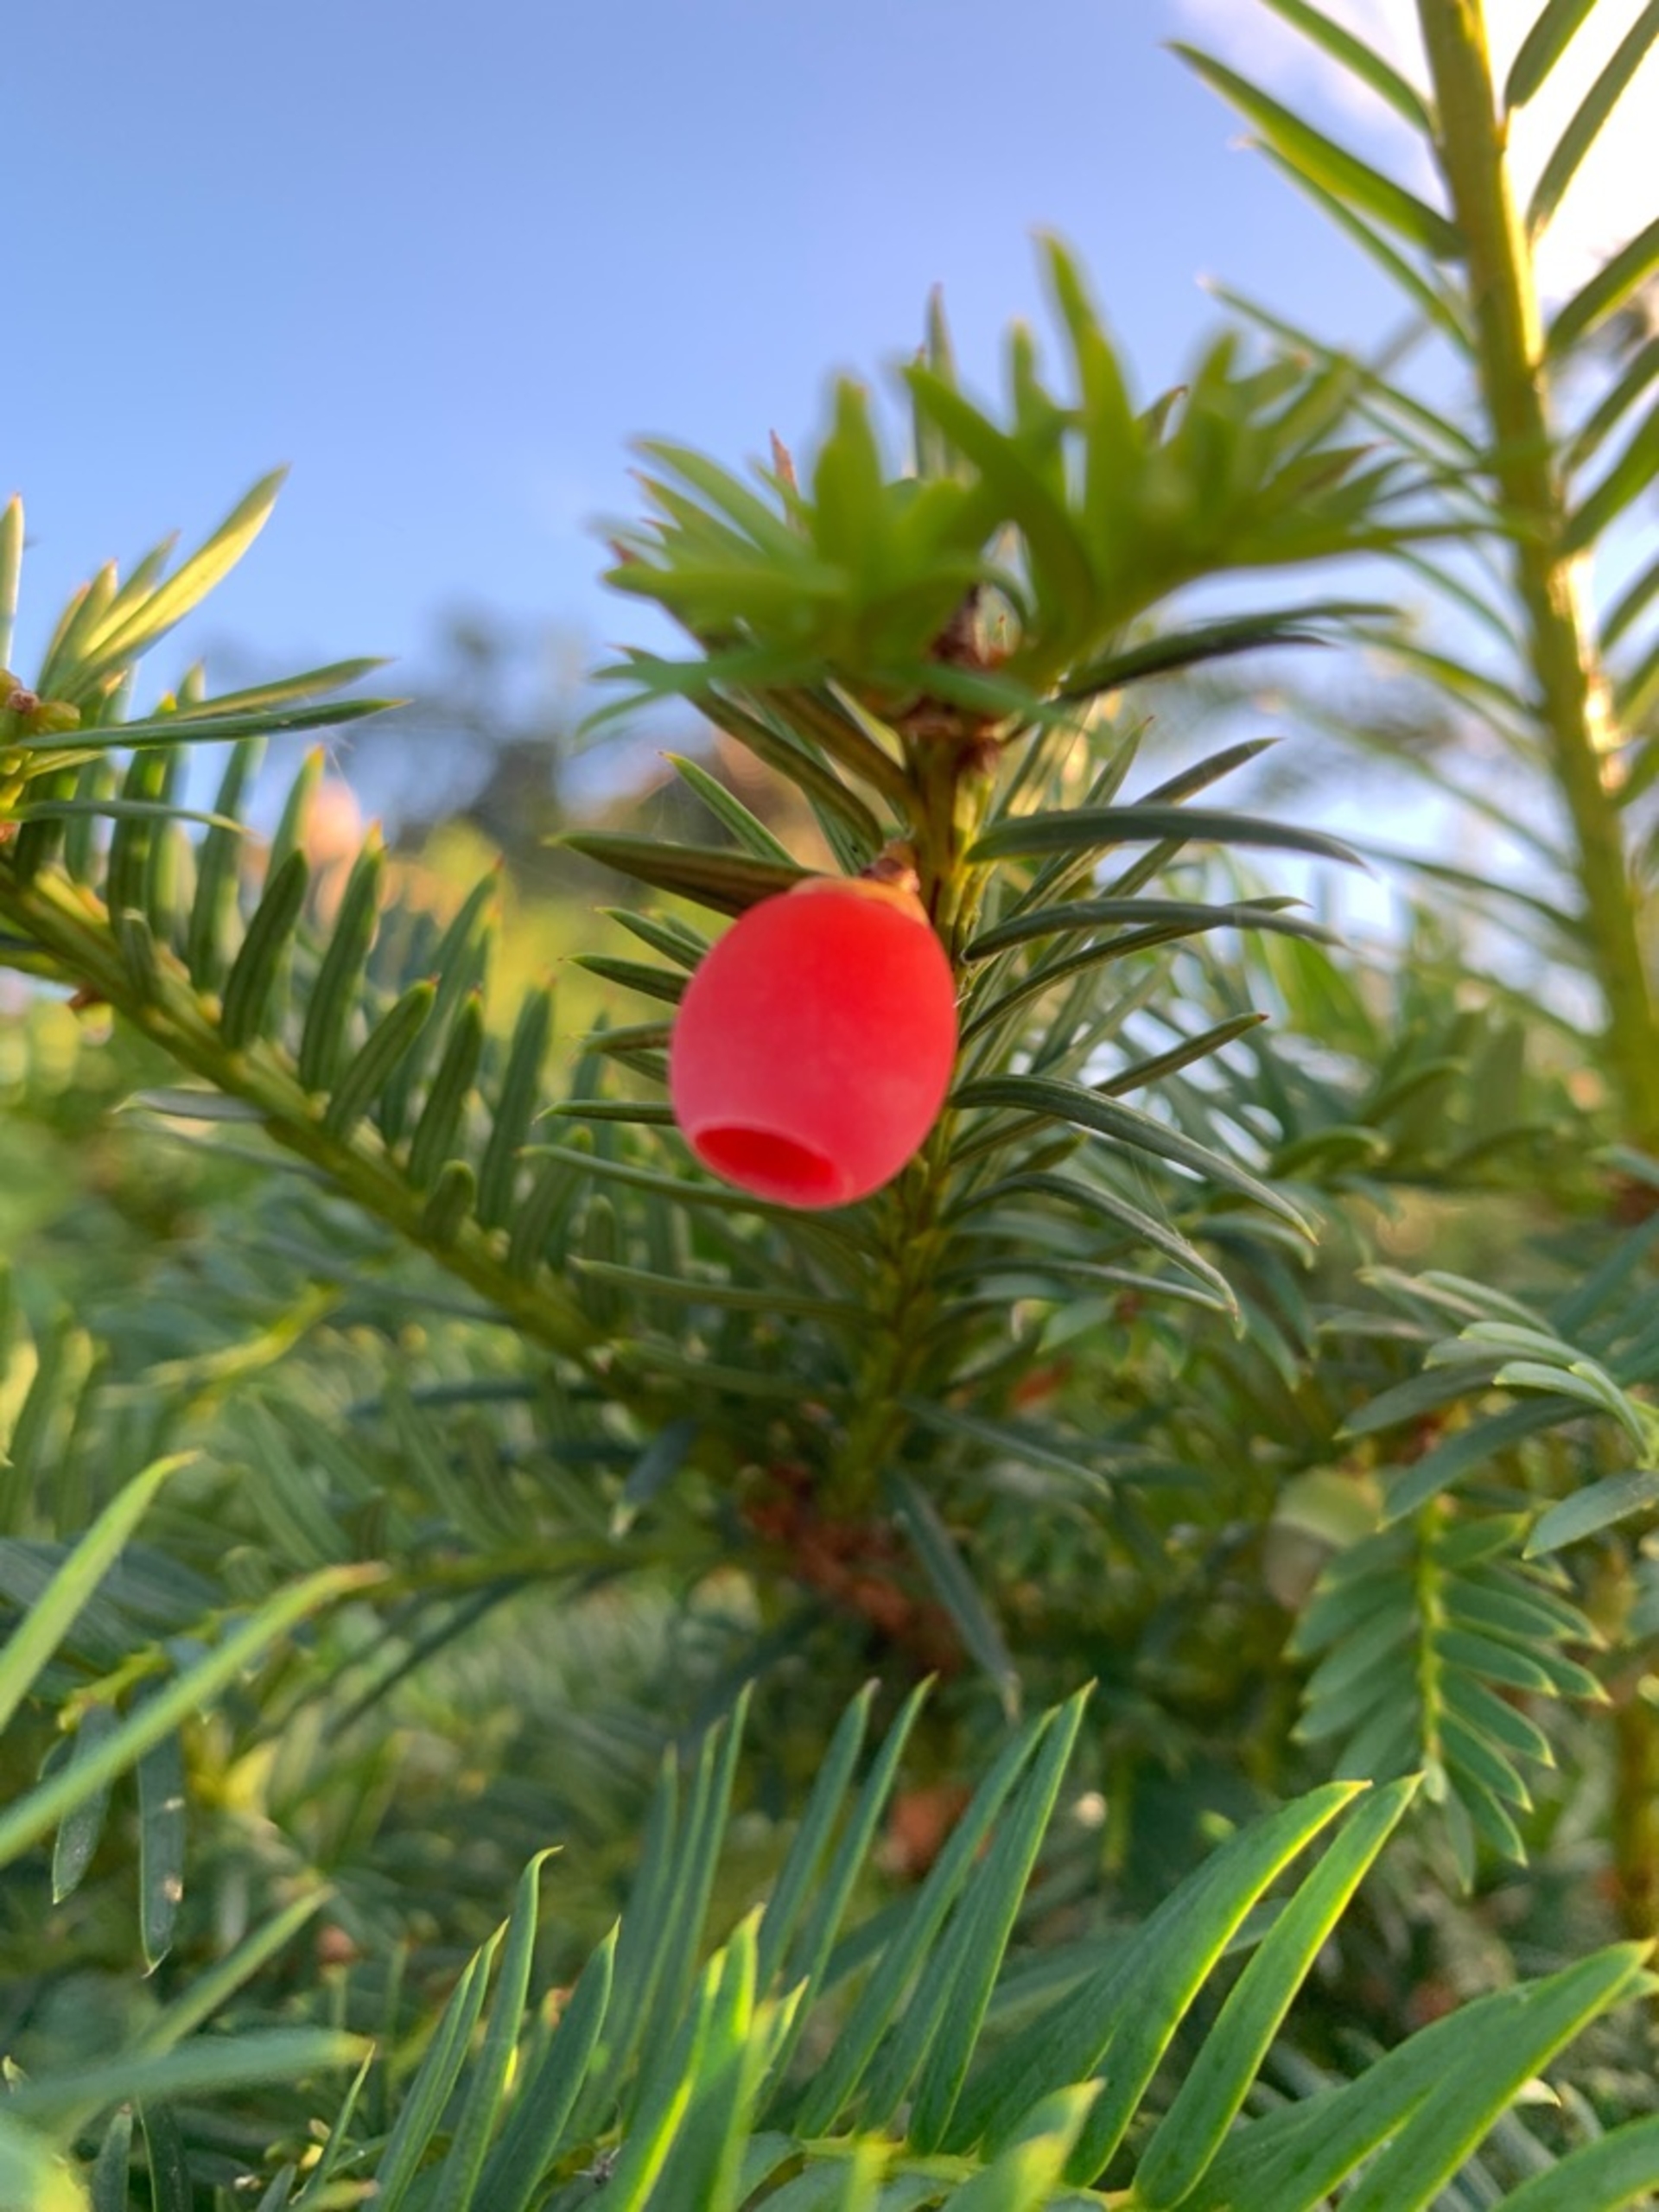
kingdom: Plantae
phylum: Tracheophyta
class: Pinopsida
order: Pinales
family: Taxaceae
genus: Taxus
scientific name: Taxus media
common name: Hybrid-taks
